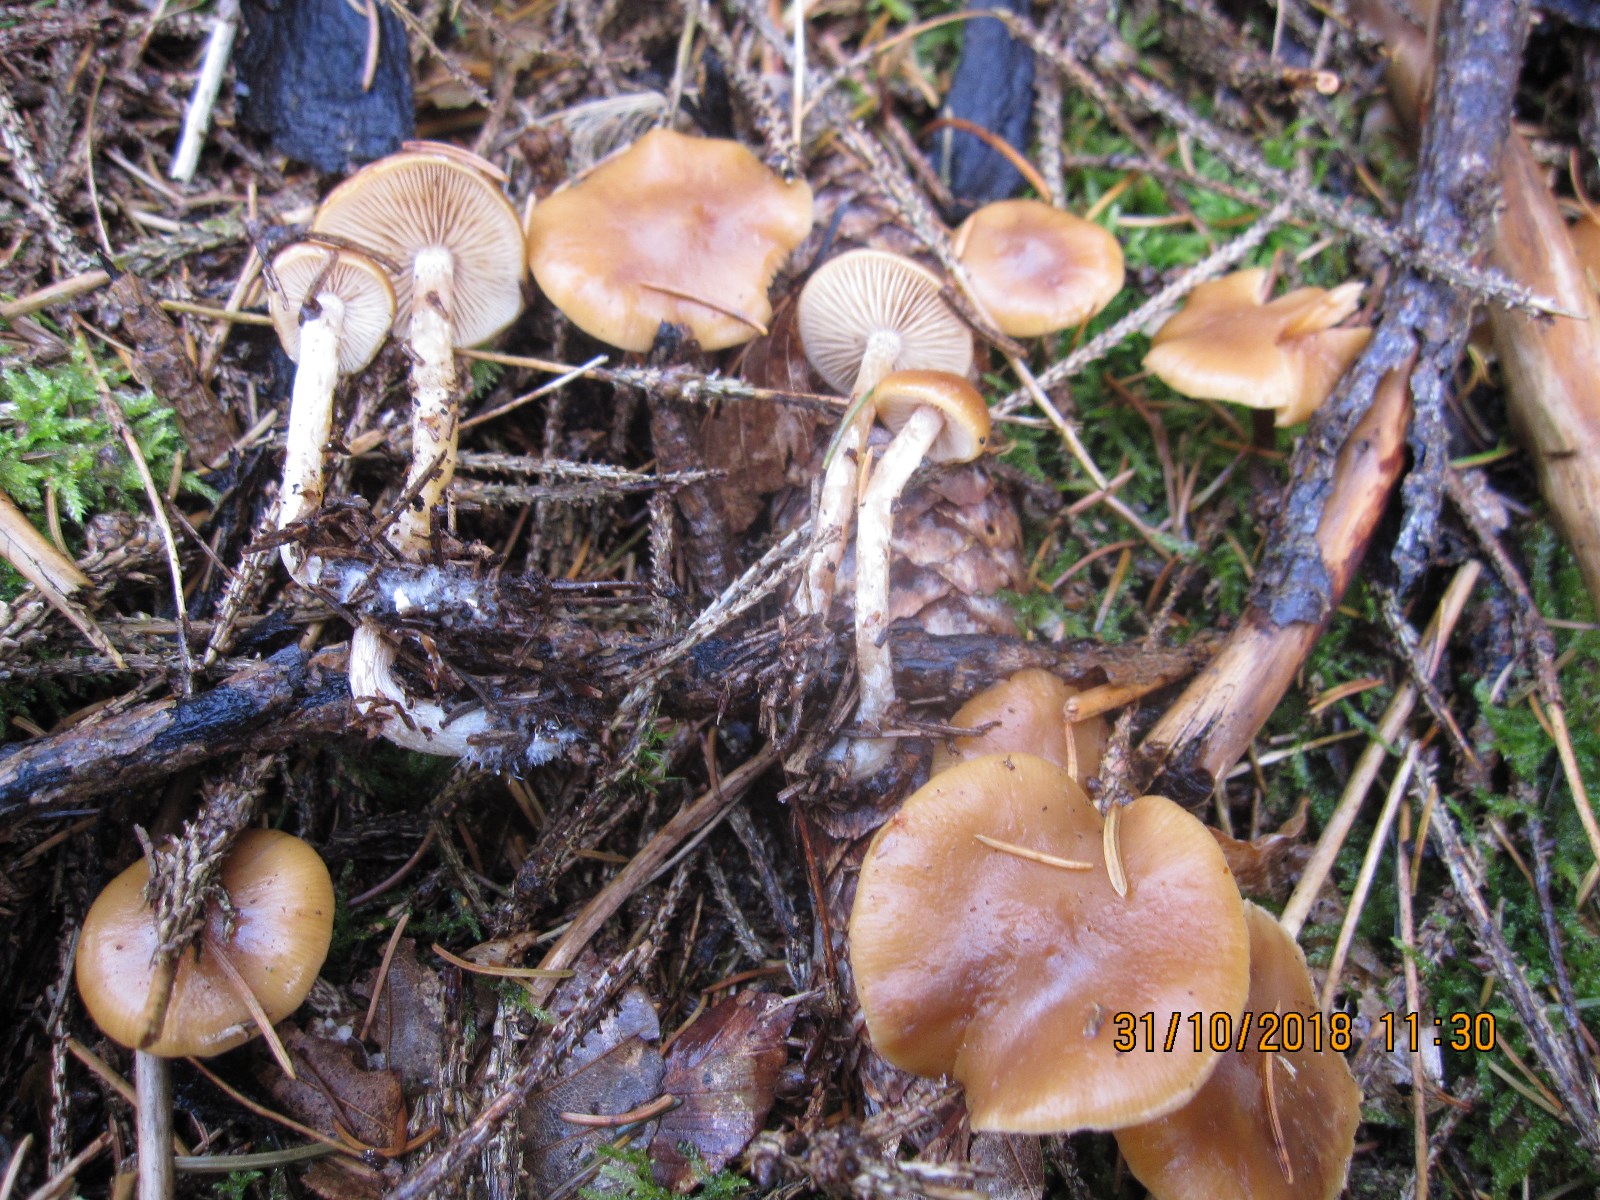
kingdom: Fungi
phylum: Basidiomycota
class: Agaricomycetes
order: Agaricales
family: Hymenogastraceae
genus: Galerina
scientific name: Galerina sideroides
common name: træflis-hjelmhat
